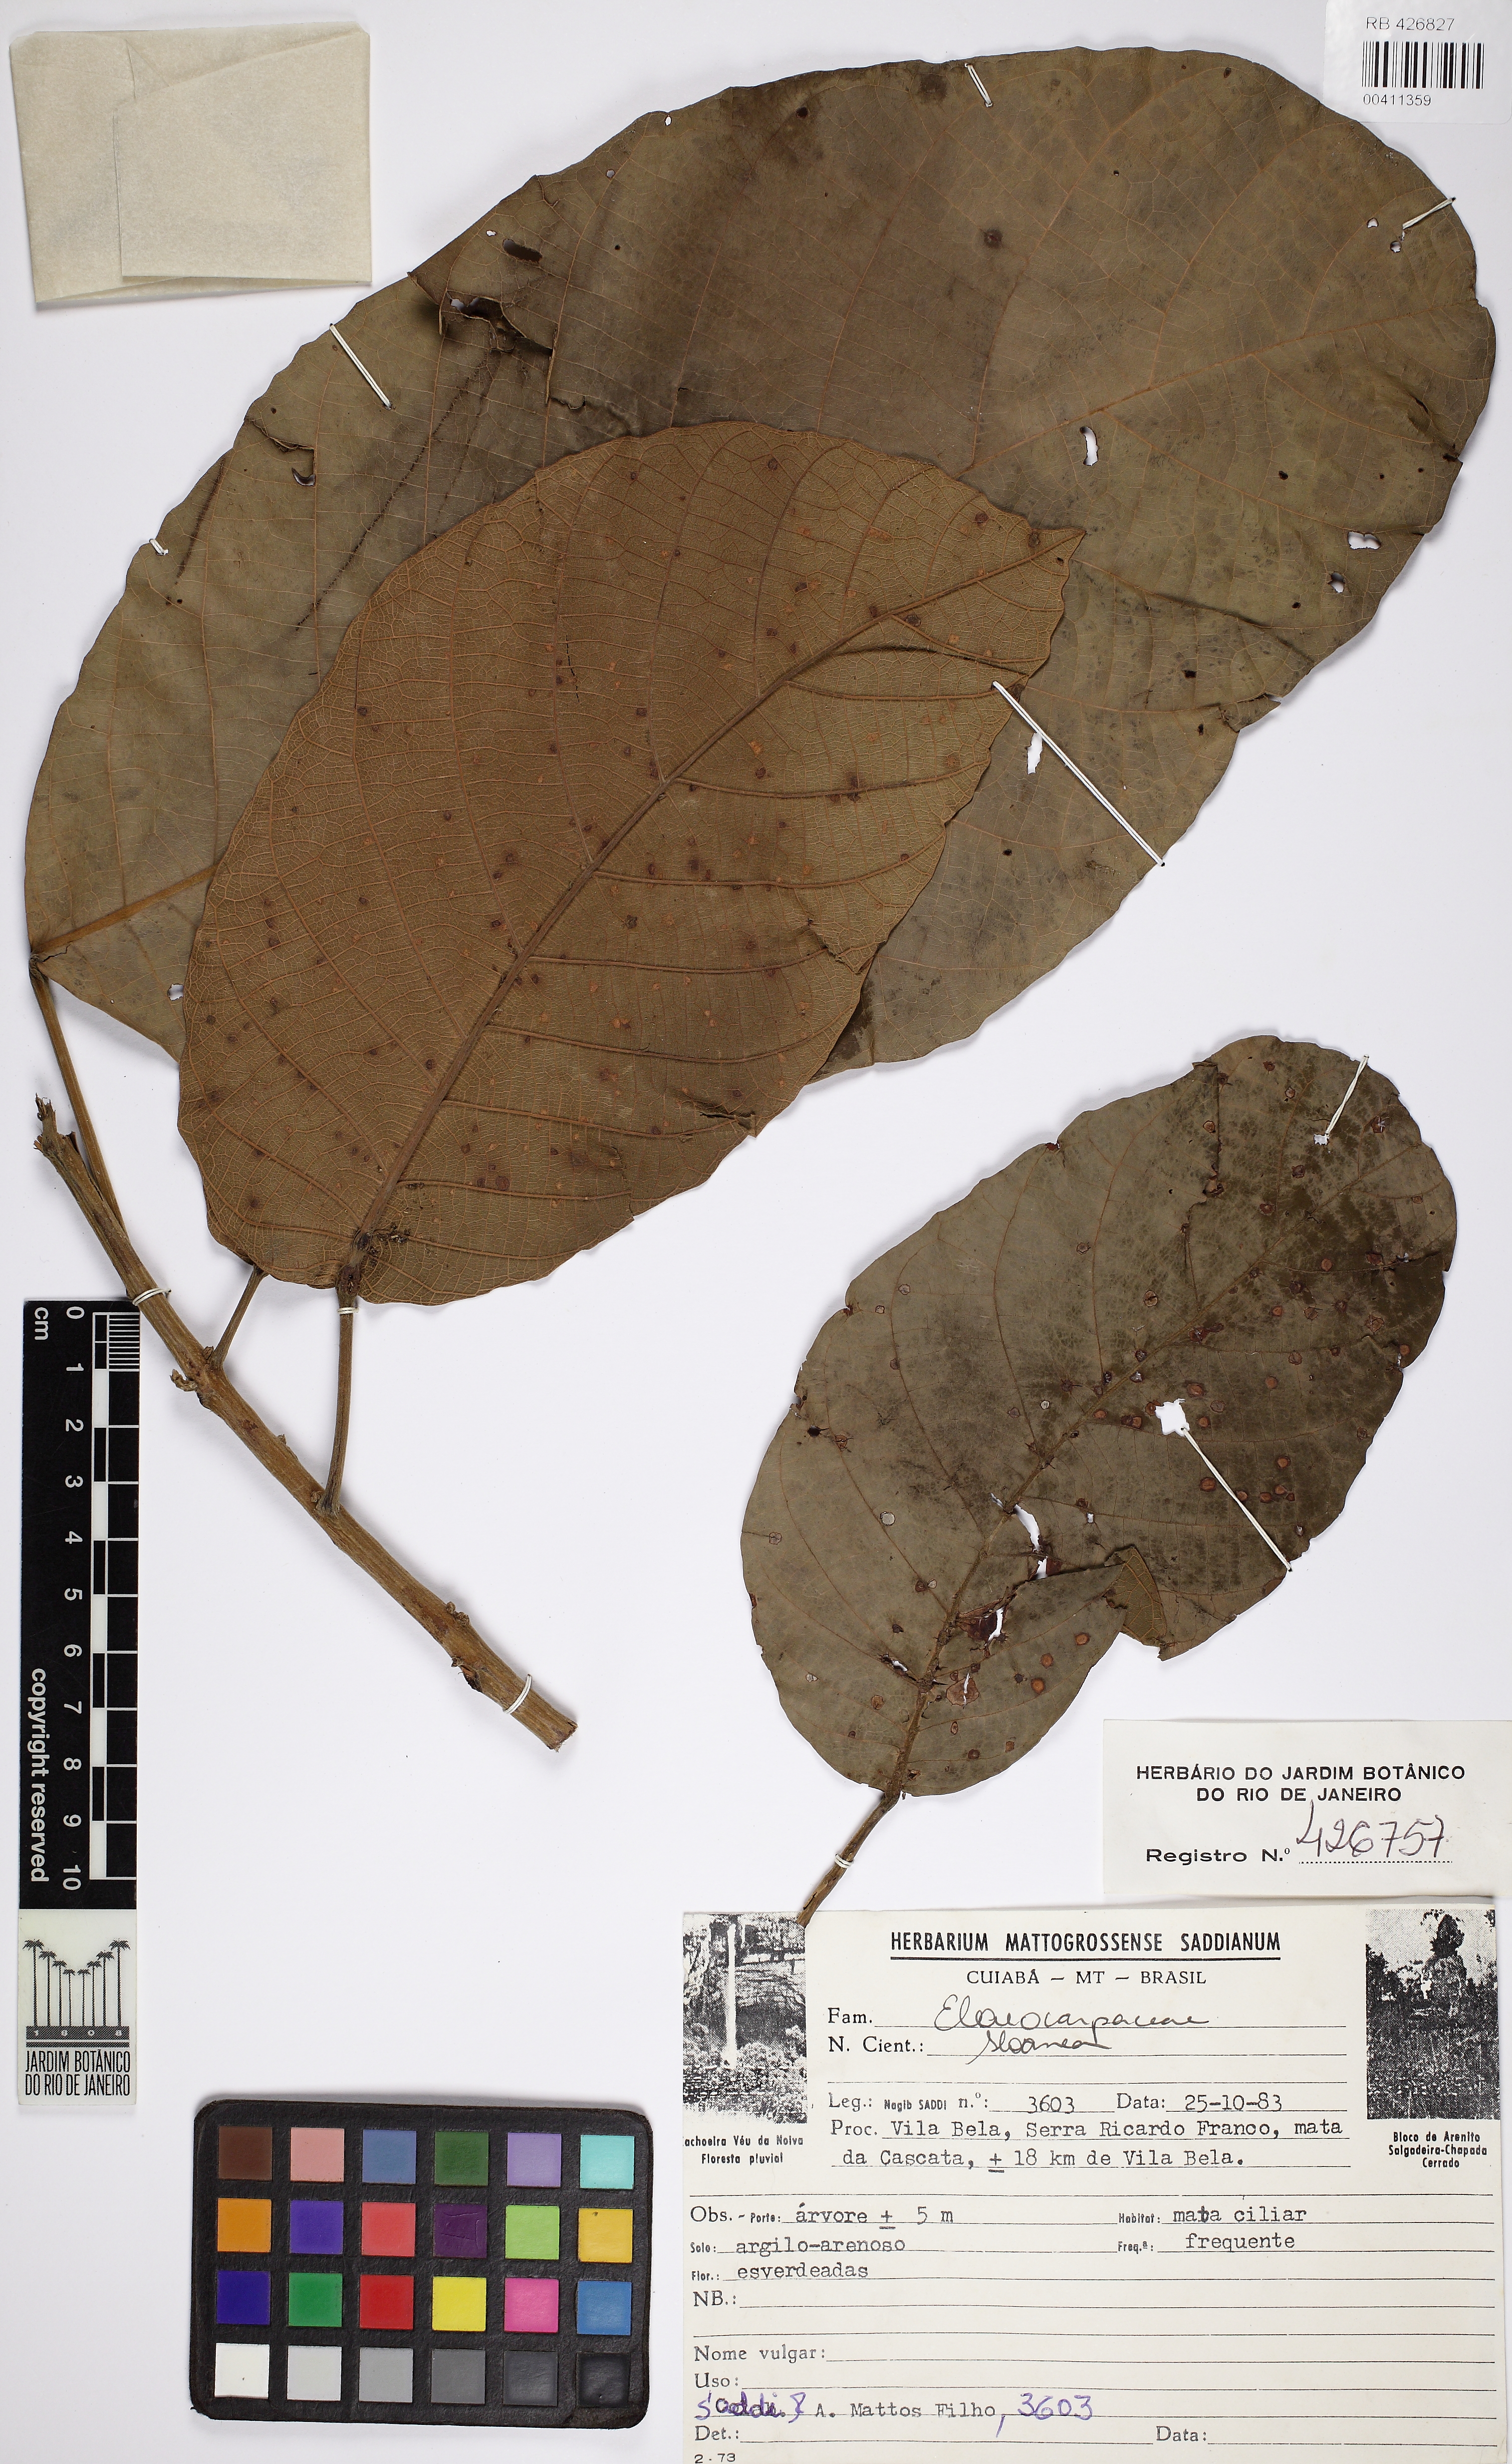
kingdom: Plantae
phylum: Tracheophyta
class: Magnoliopsida
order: Myrtales
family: Combretaceae
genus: Conocarpus
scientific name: Conocarpus erectus
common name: Button mangrove
